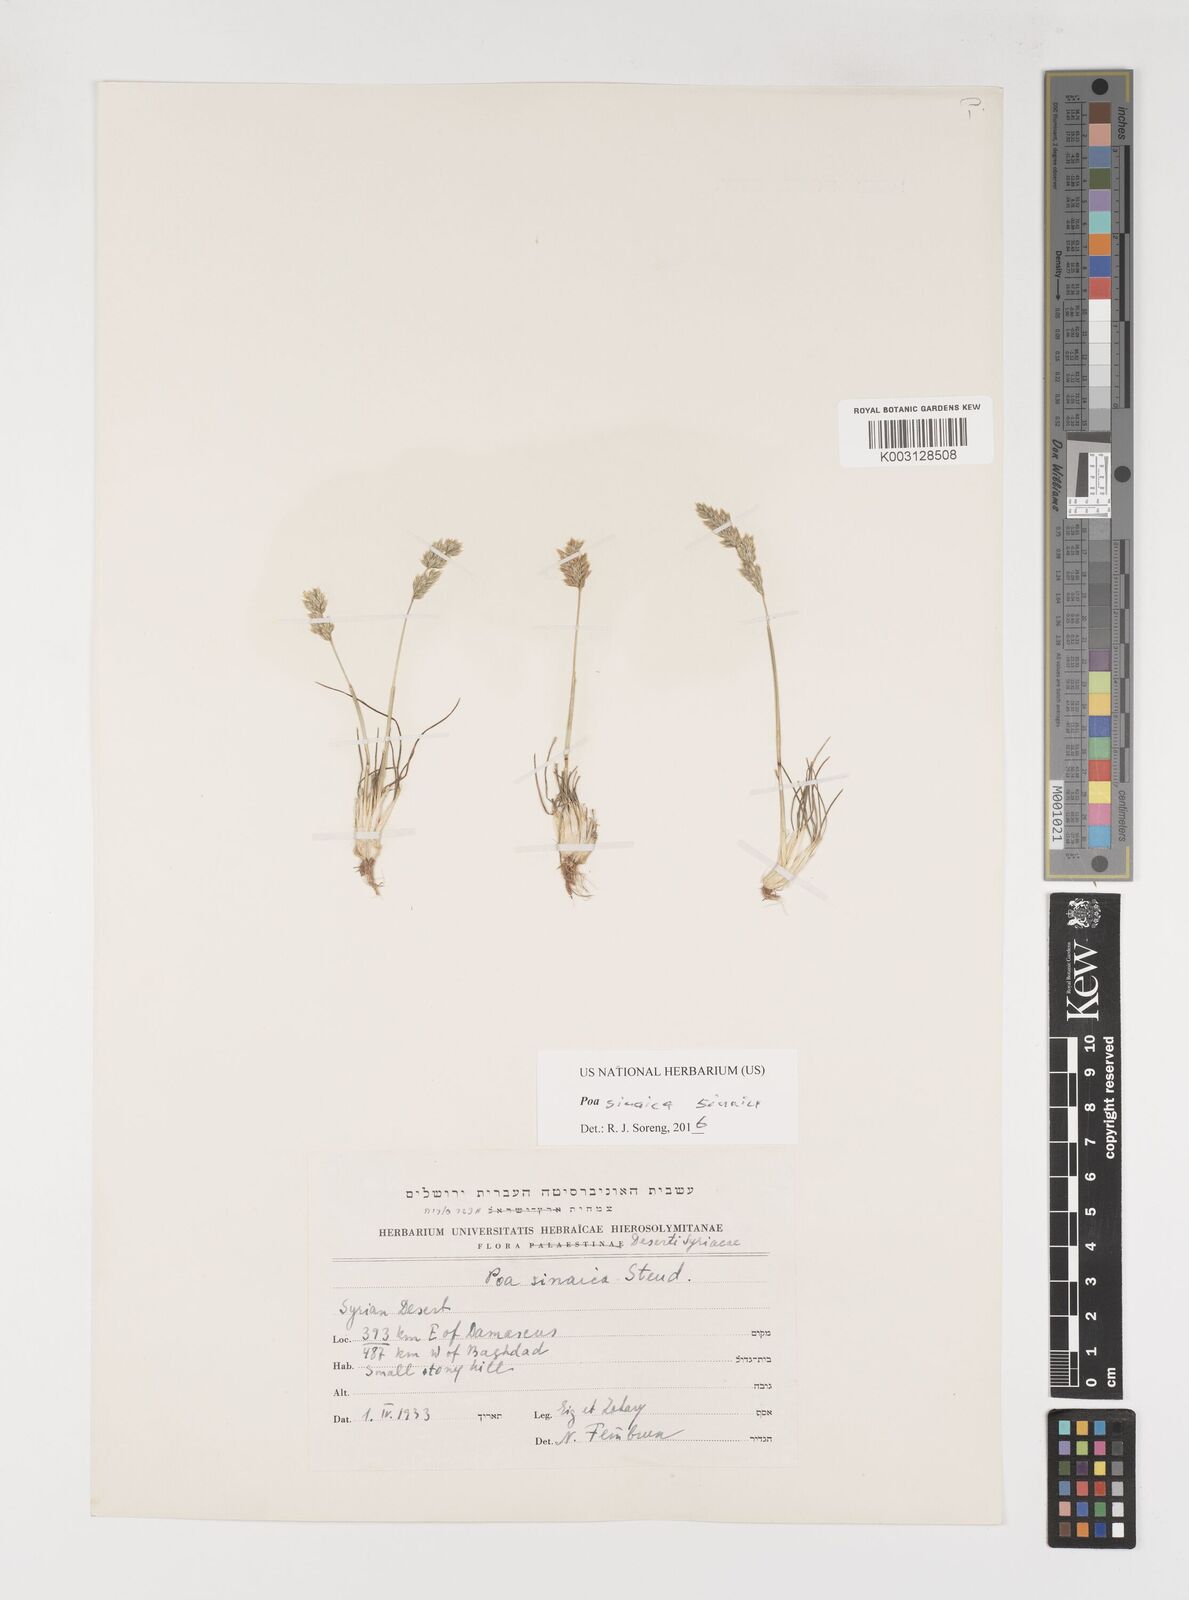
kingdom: Plantae
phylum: Tracheophyta
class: Liliopsida
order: Poales
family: Poaceae
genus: Poa
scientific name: Poa sinaica
